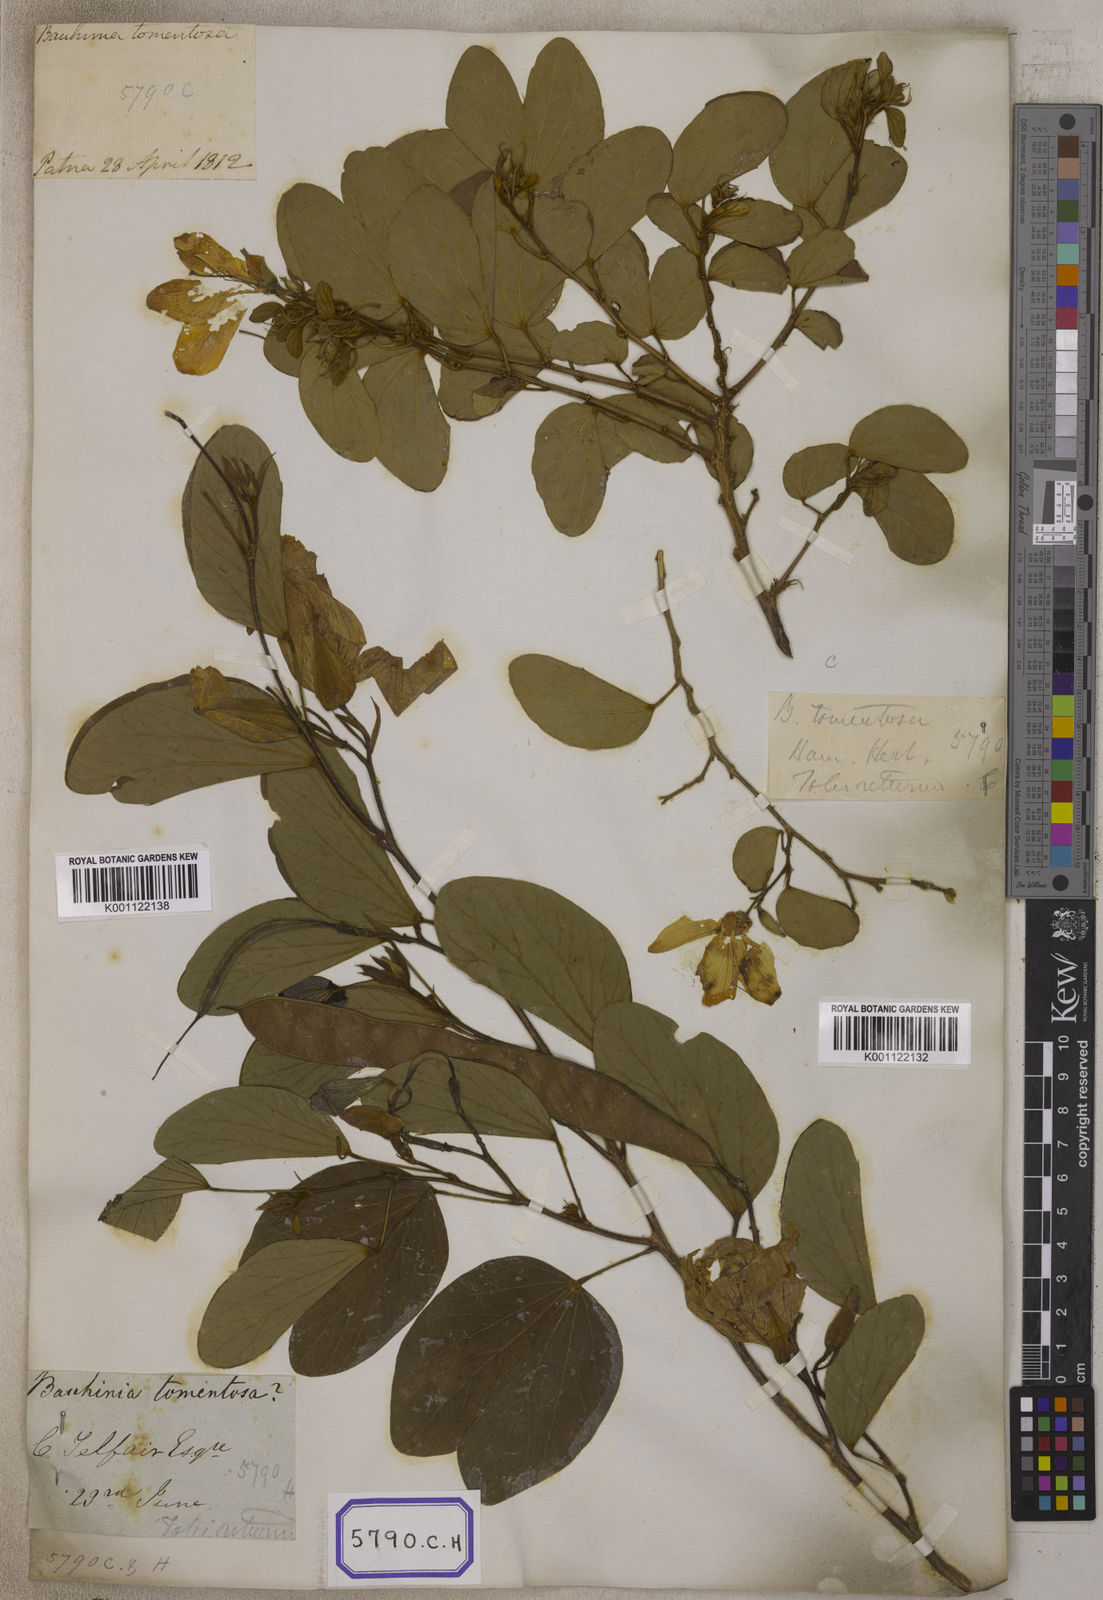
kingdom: Plantae
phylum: Tracheophyta
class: Magnoliopsida
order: Fabales
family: Fabaceae
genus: Bauhinia
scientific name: Bauhinia tomentosa
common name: Bell bauhinia
